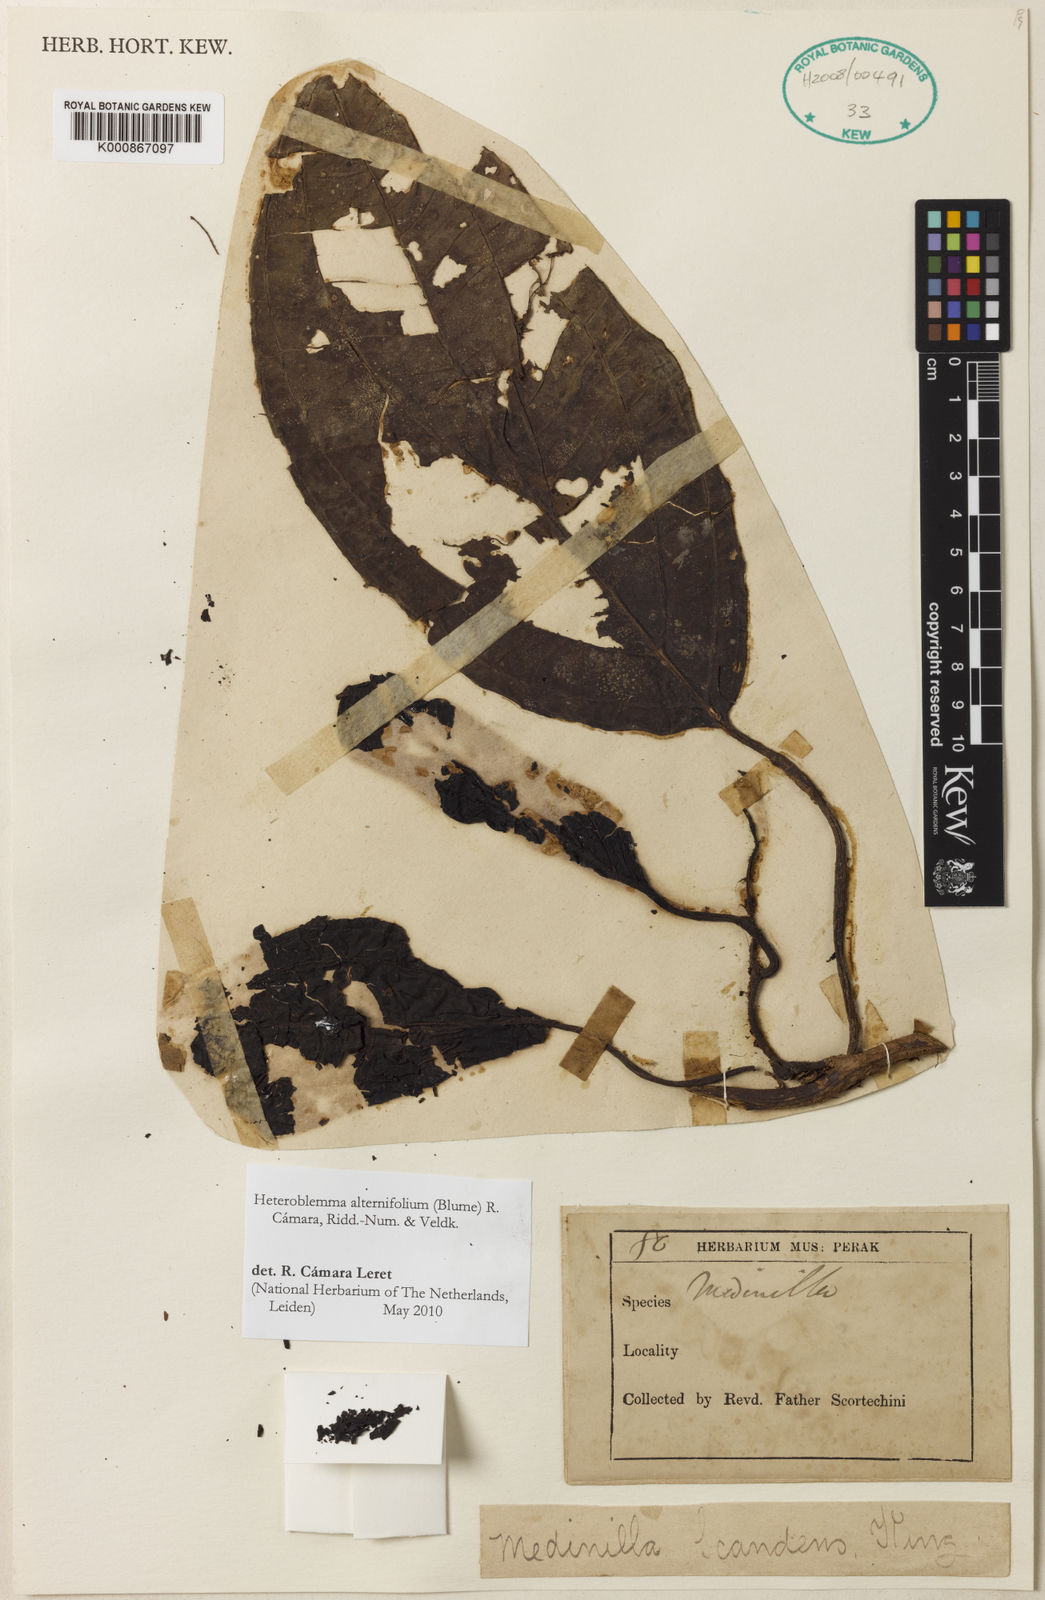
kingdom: Plantae
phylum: Tracheophyta
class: Magnoliopsida
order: Myrtales
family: Melastomataceae
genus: Heteroblemma
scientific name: Heteroblemma alternifolium
